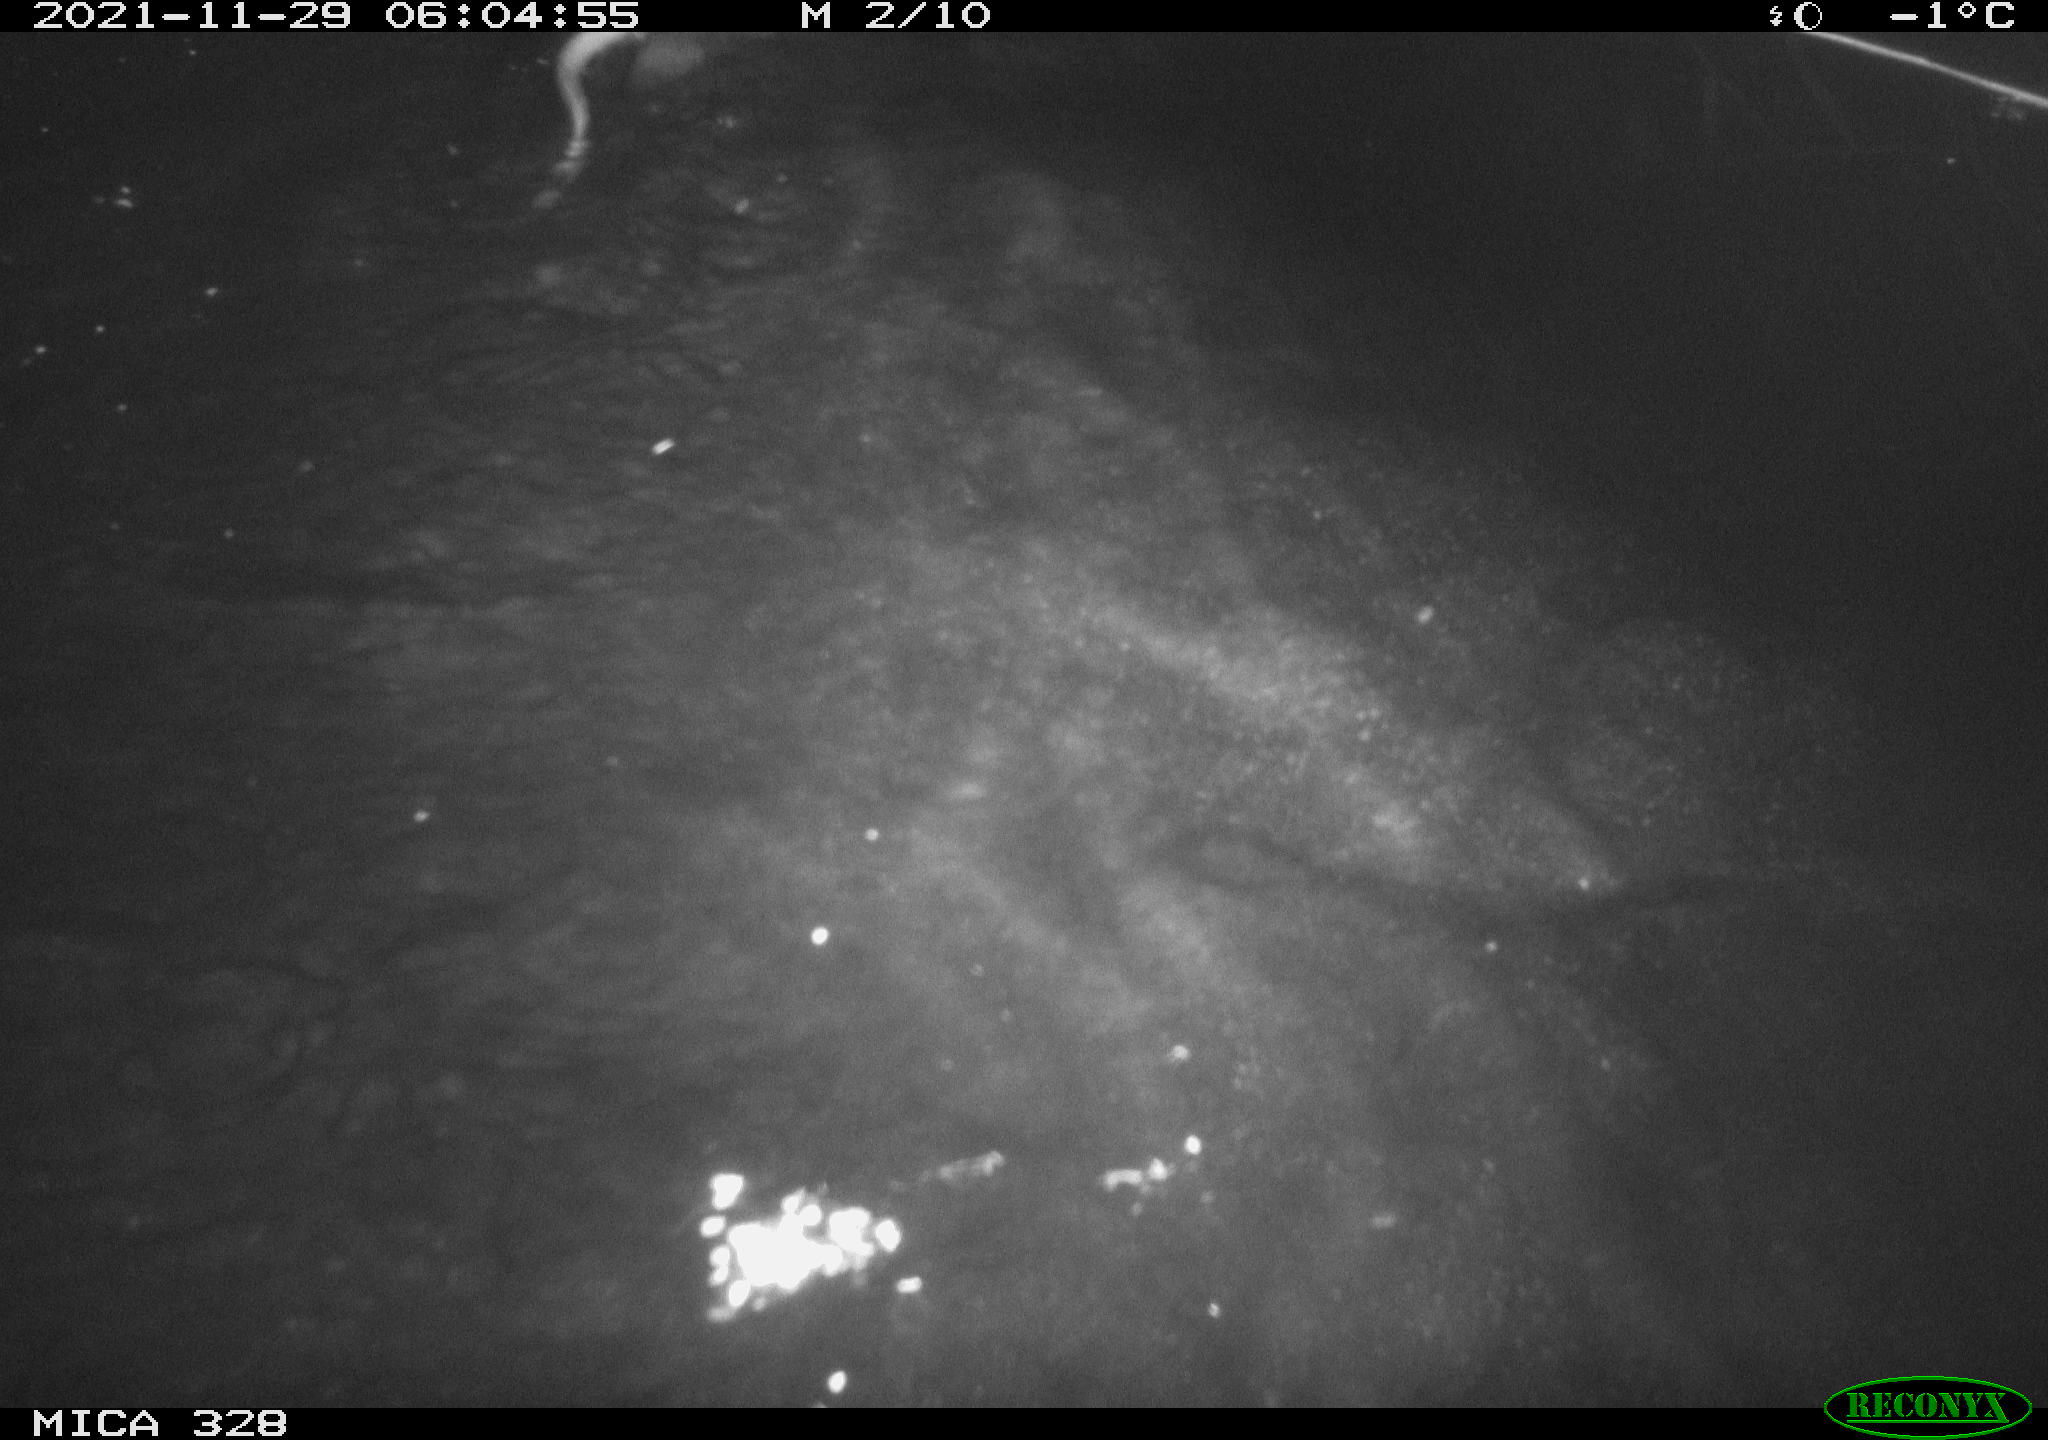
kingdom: Animalia
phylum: Chordata
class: Mammalia
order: Rodentia
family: Cricetidae
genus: Ondatra
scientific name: Ondatra zibethicus
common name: Muskrat
